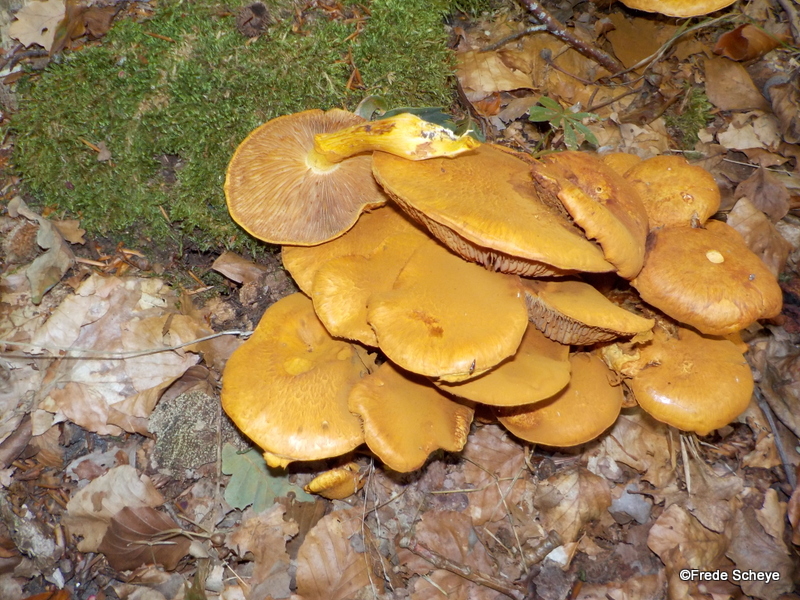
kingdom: Fungi
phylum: Basidiomycota
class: Agaricomycetes
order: Agaricales
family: Hymenogastraceae
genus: Gymnopilus
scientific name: Gymnopilus penetrans
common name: plettet flammehat
